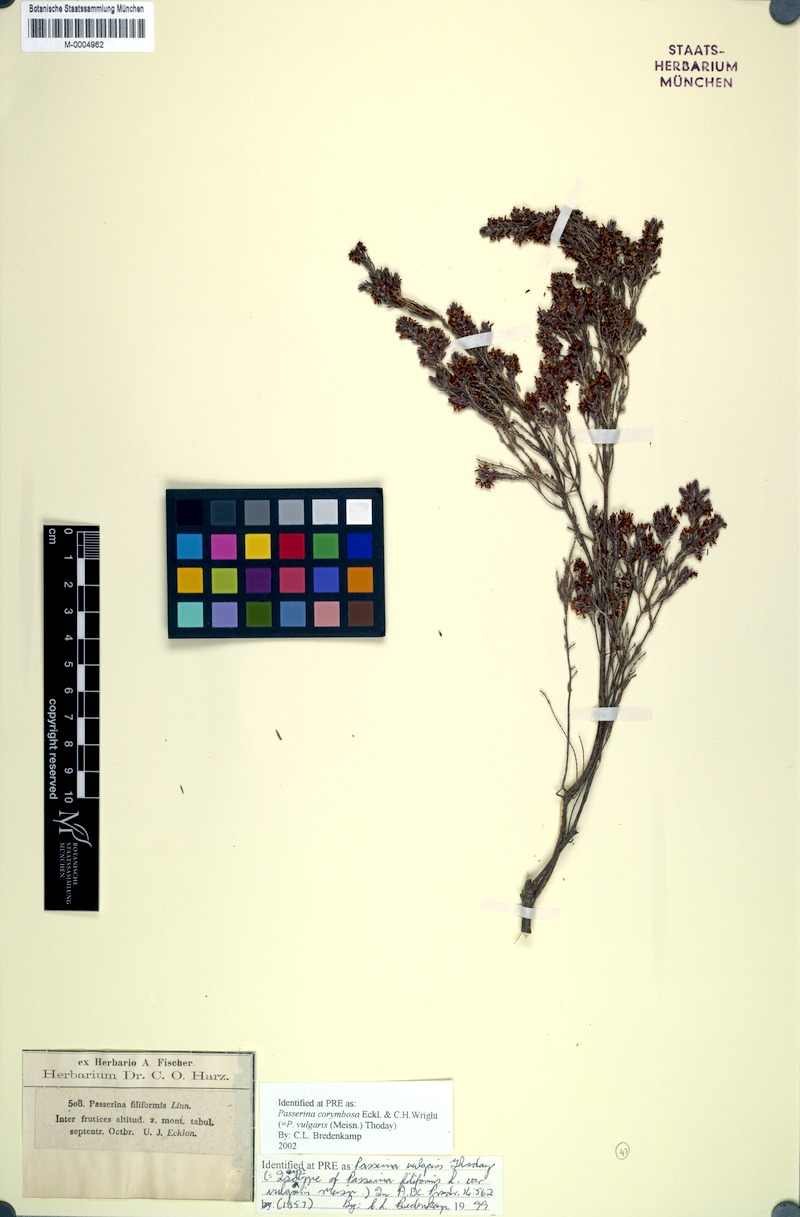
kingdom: Plantae
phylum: Tracheophyta
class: Magnoliopsida
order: Malvales
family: Thymelaeaceae
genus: Passerina
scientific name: Passerina corymbosa
